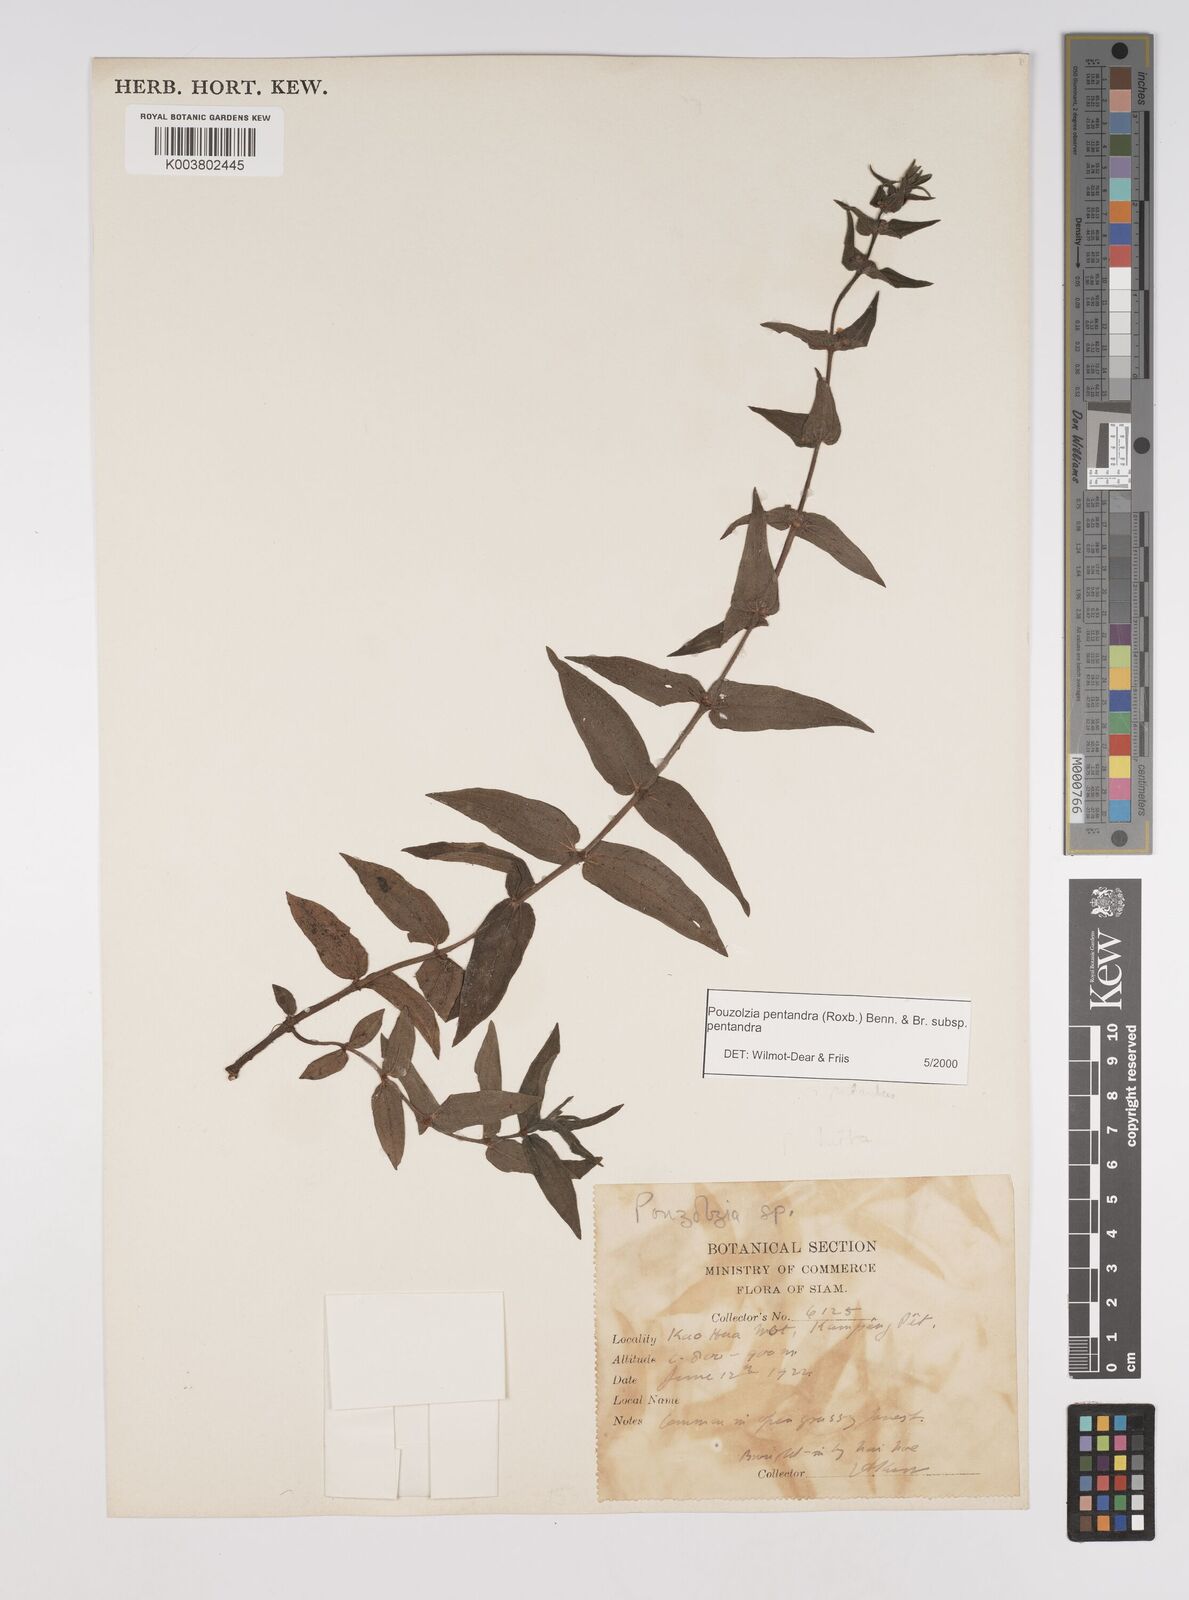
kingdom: Plantae
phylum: Tracheophyta
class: Magnoliopsida
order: Rosales
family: Urticaceae
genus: Gonostegia
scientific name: Gonostegia pentandra
